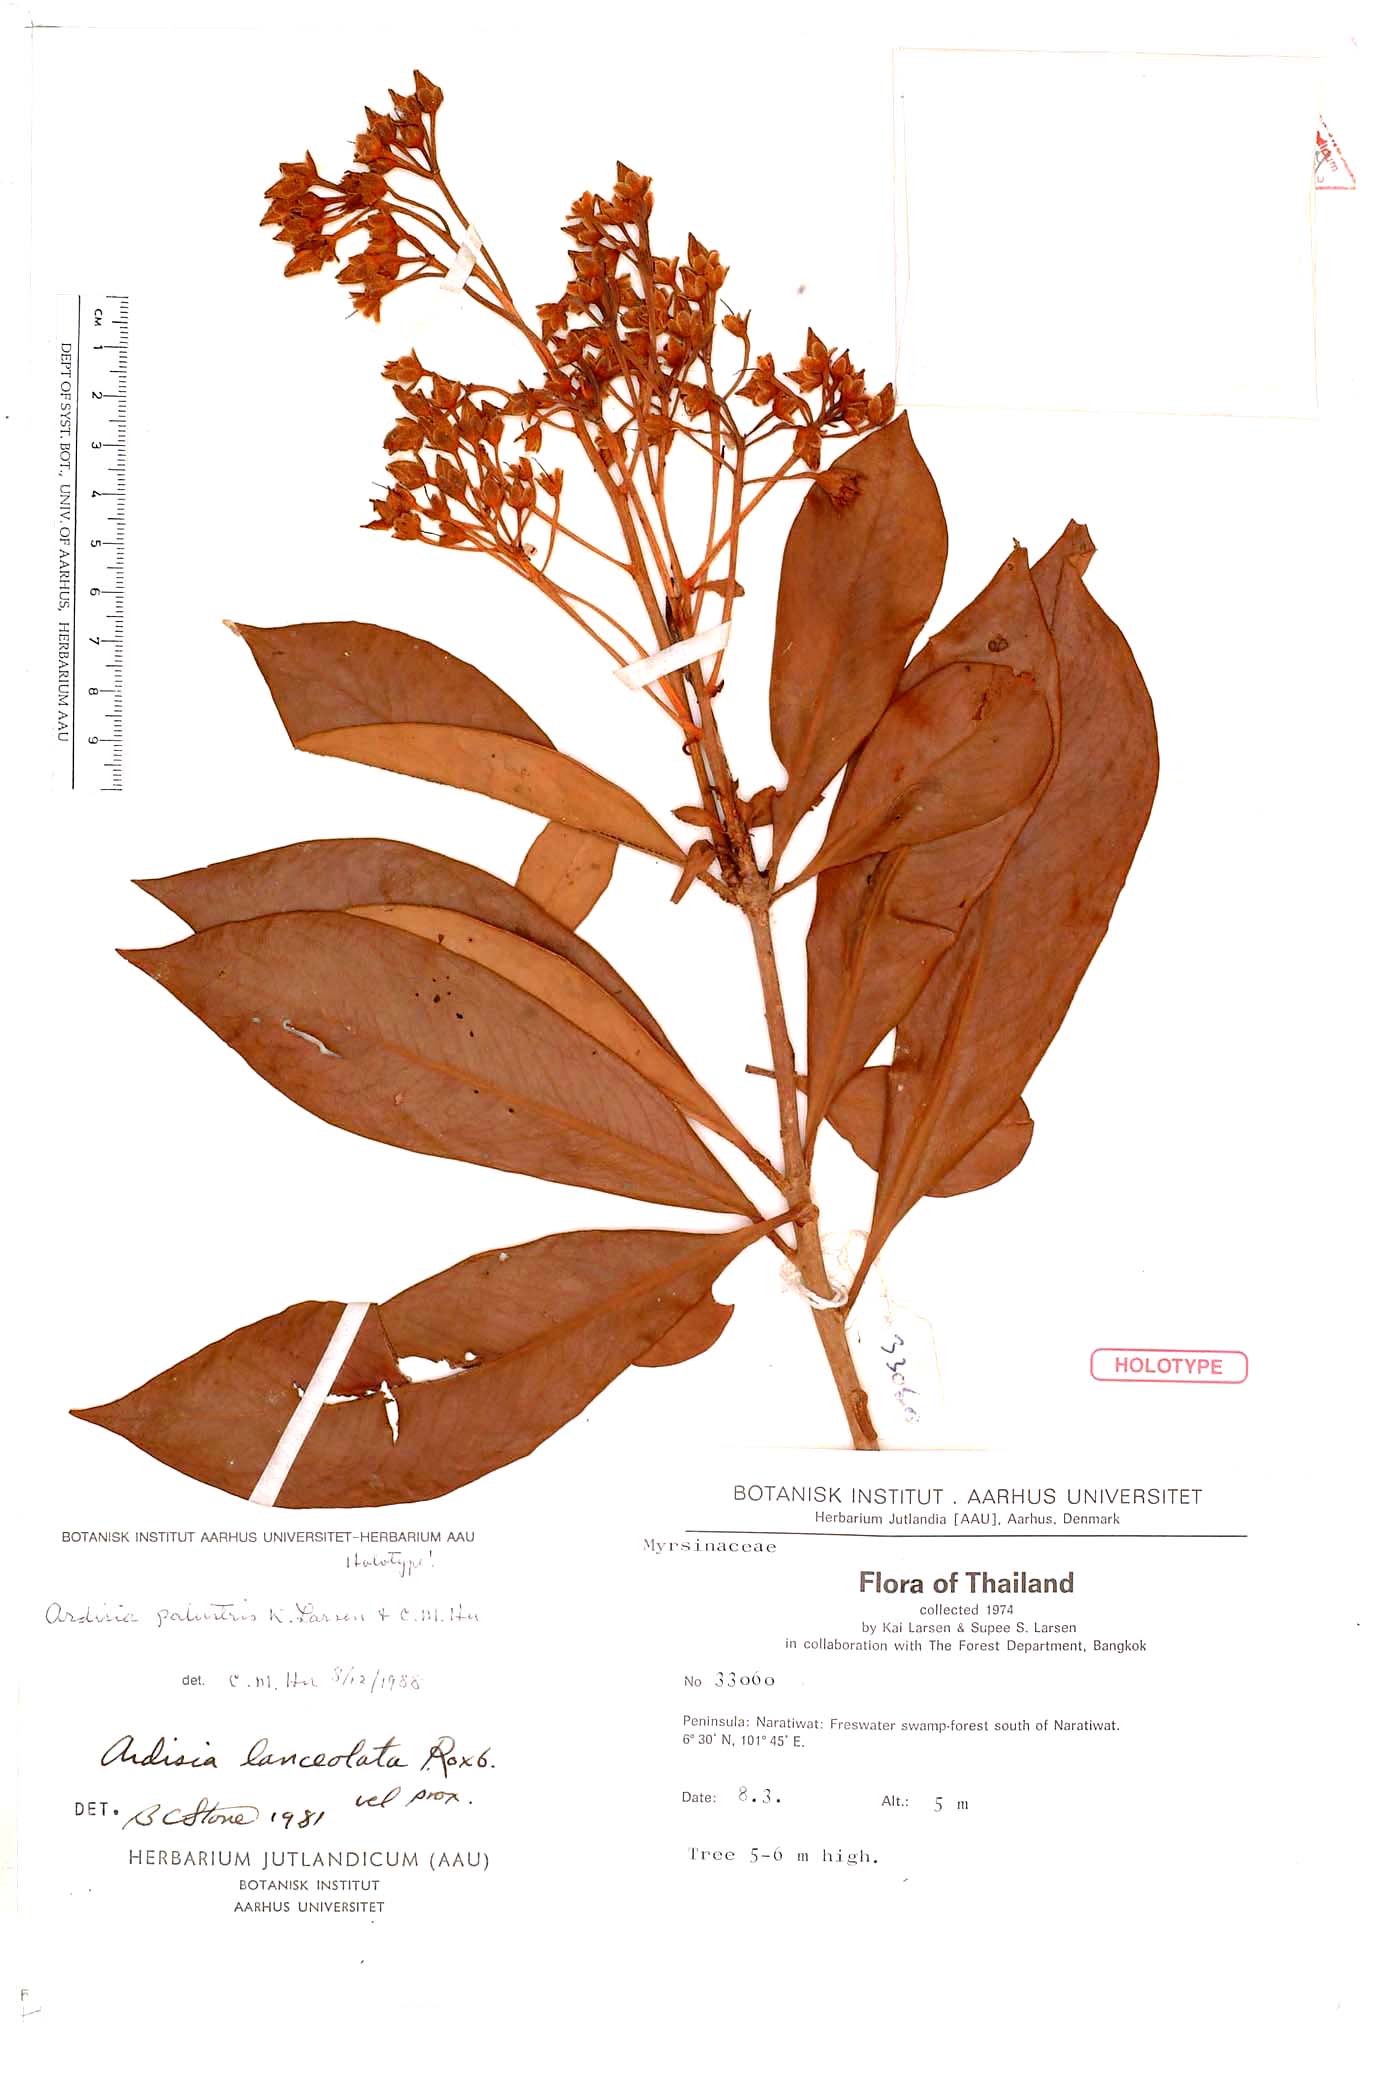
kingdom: Plantae
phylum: Tracheophyta
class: Magnoliopsida
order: Ericales
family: Primulaceae
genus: Ardisia
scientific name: Ardisia palustris
